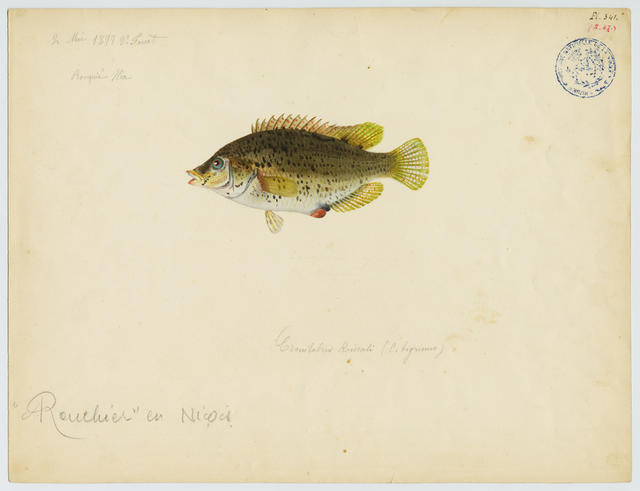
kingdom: Animalia
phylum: Chordata
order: Perciformes
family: Labridae
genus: Symphodus
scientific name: Symphodus roissali
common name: Five-spotted wrasse
